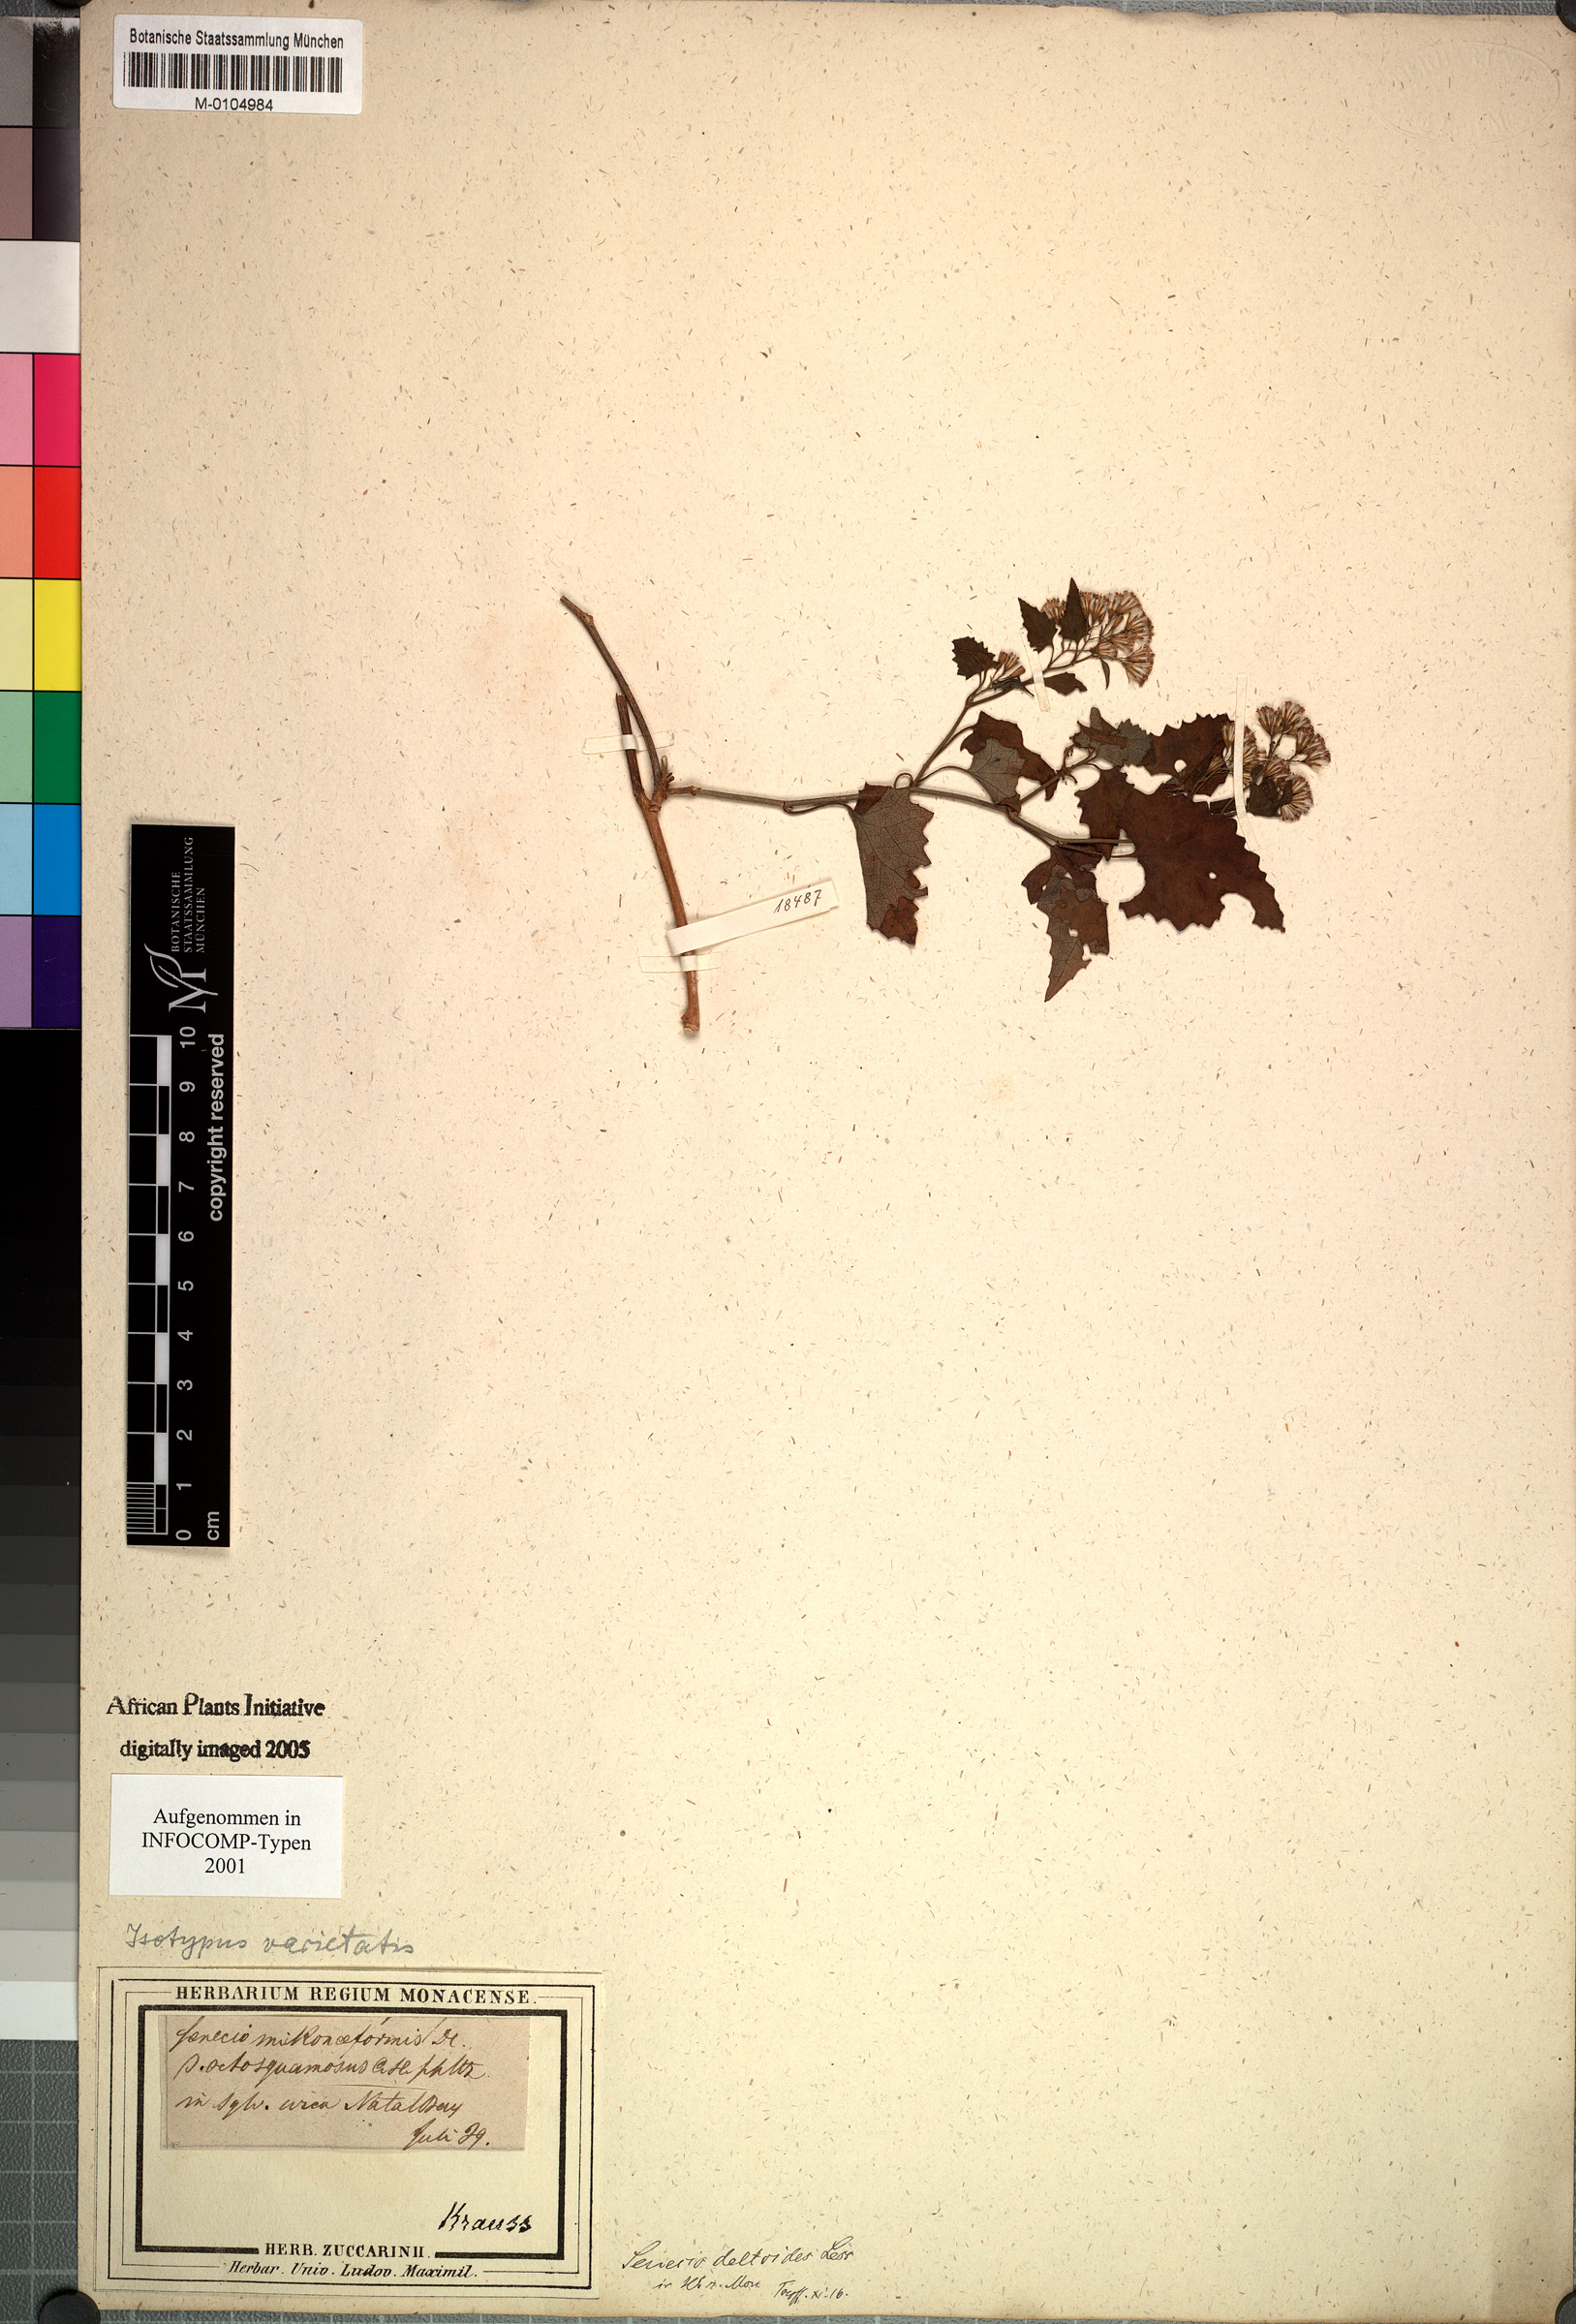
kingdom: Plantae
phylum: Tracheophyta
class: Magnoliopsida
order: Asterales
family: Asteraceae
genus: Senecio
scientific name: Senecio deltoideus
